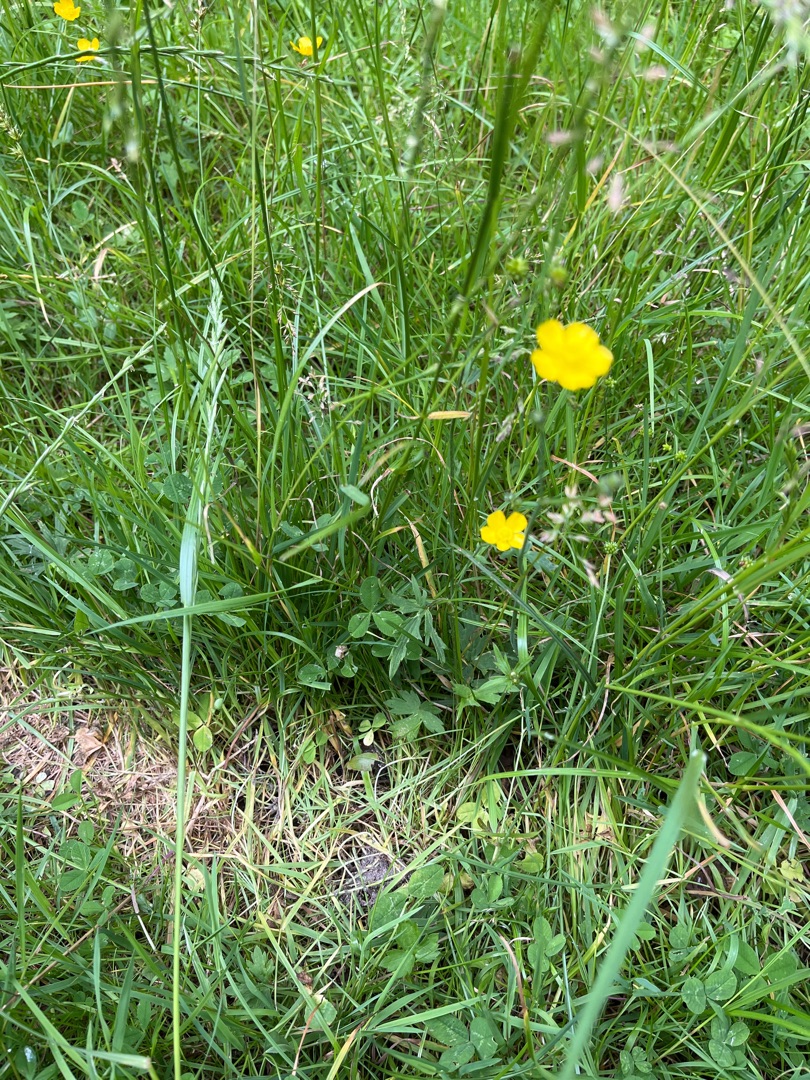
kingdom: Plantae
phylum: Tracheophyta
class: Magnoliopsida
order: Ranunculales
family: Ranunculaceae
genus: Ranunculus
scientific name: Ranunculus acris
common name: Bidende ranunkel
